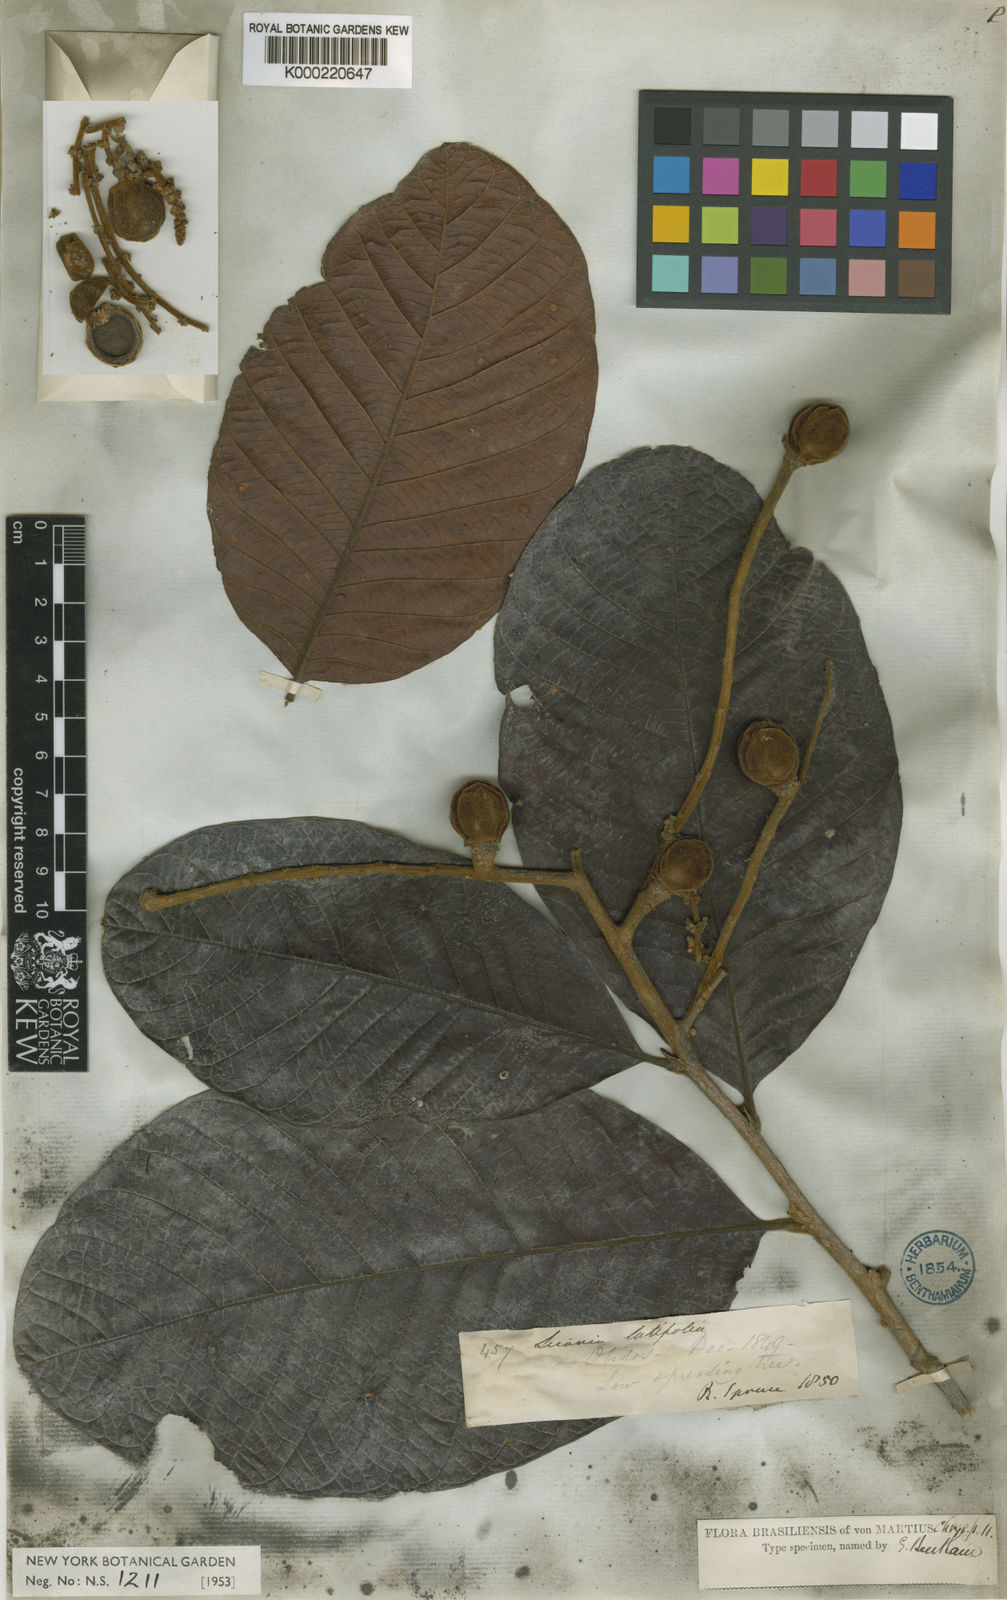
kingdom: Plantae
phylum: Tracheophyta
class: Magnoliopsida
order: Malpighiales
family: Chrysobalanaceae
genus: Hymenopus
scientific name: Hymenopus latifolius
